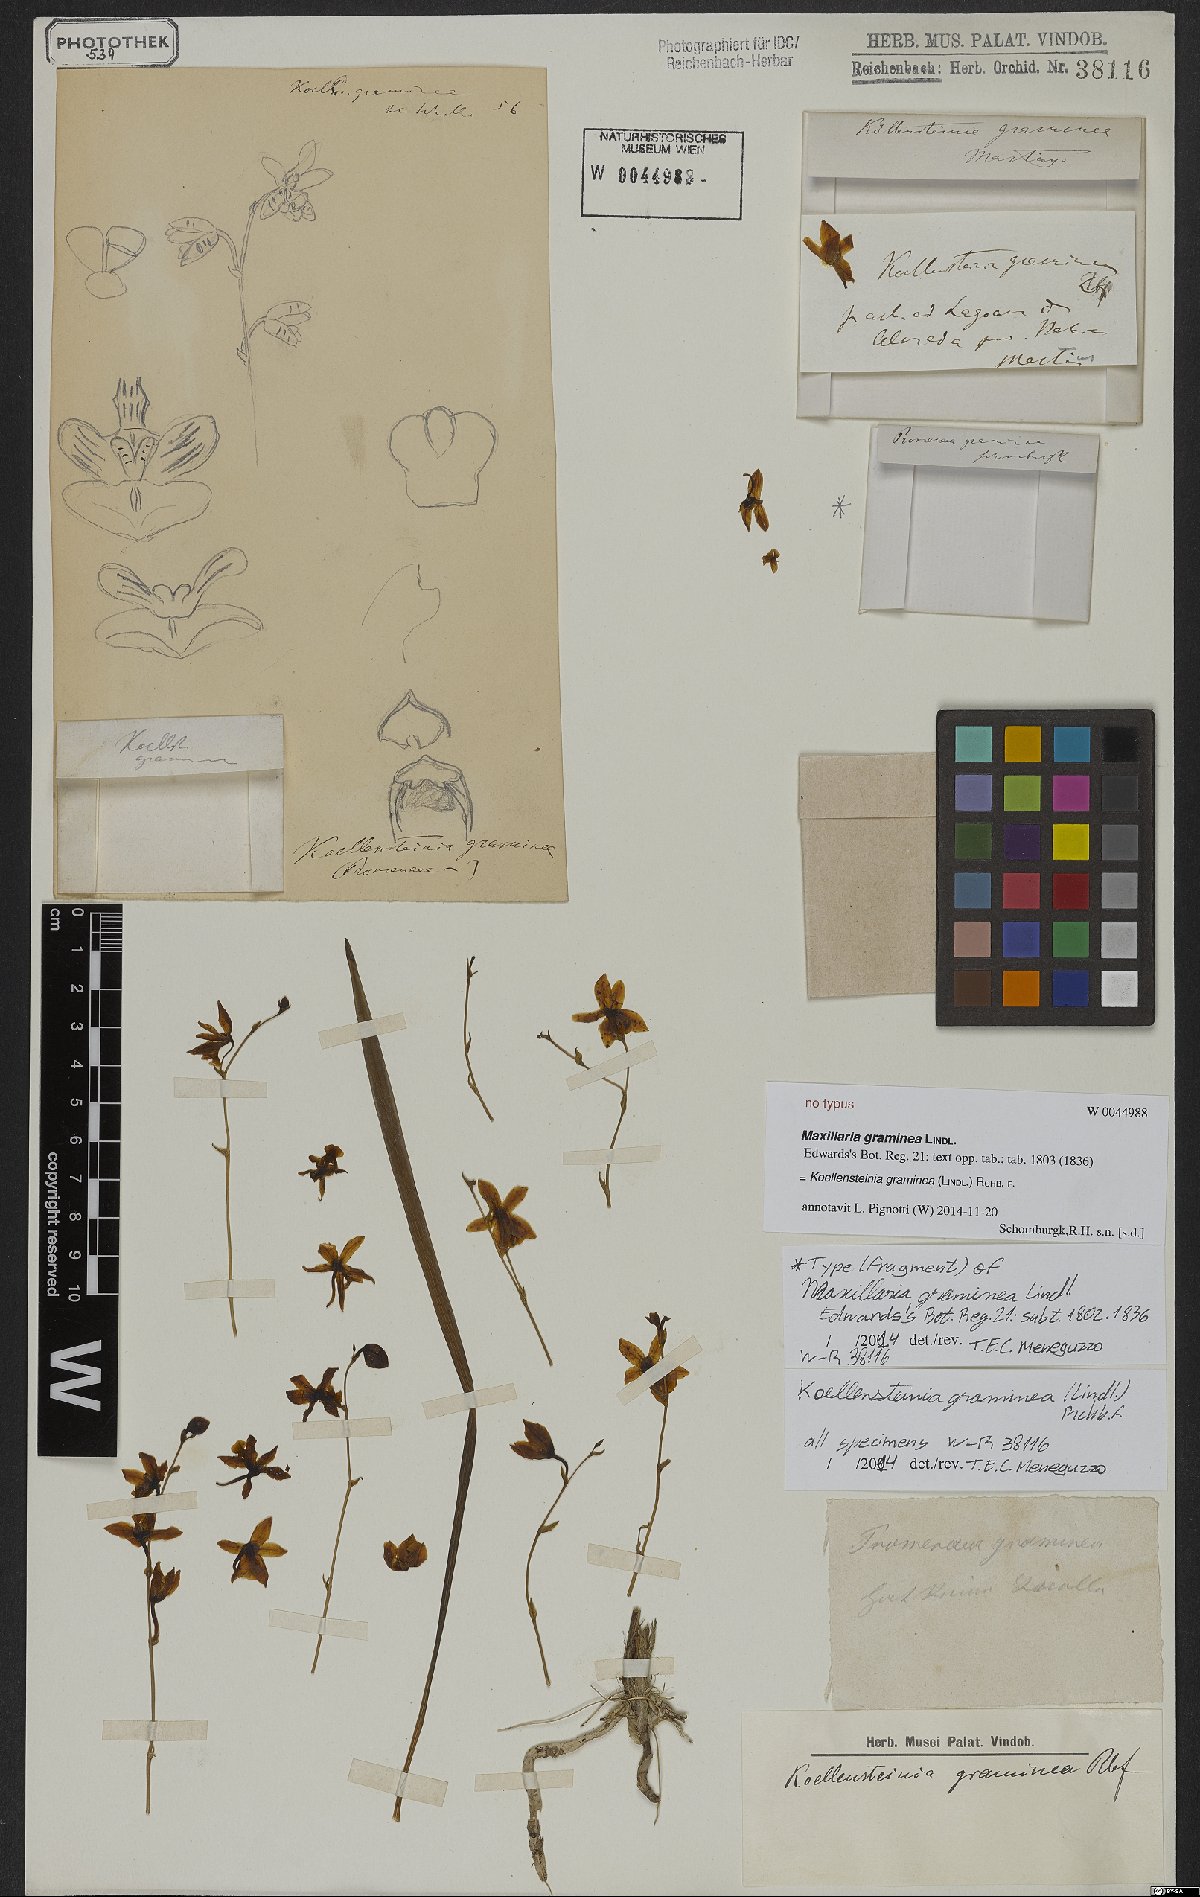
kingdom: Plantae
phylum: Tracheophyta
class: Liliopsida
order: Asparagales
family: Orchidaceae
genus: Koellensteinia
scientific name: Koellensteinia graminea
